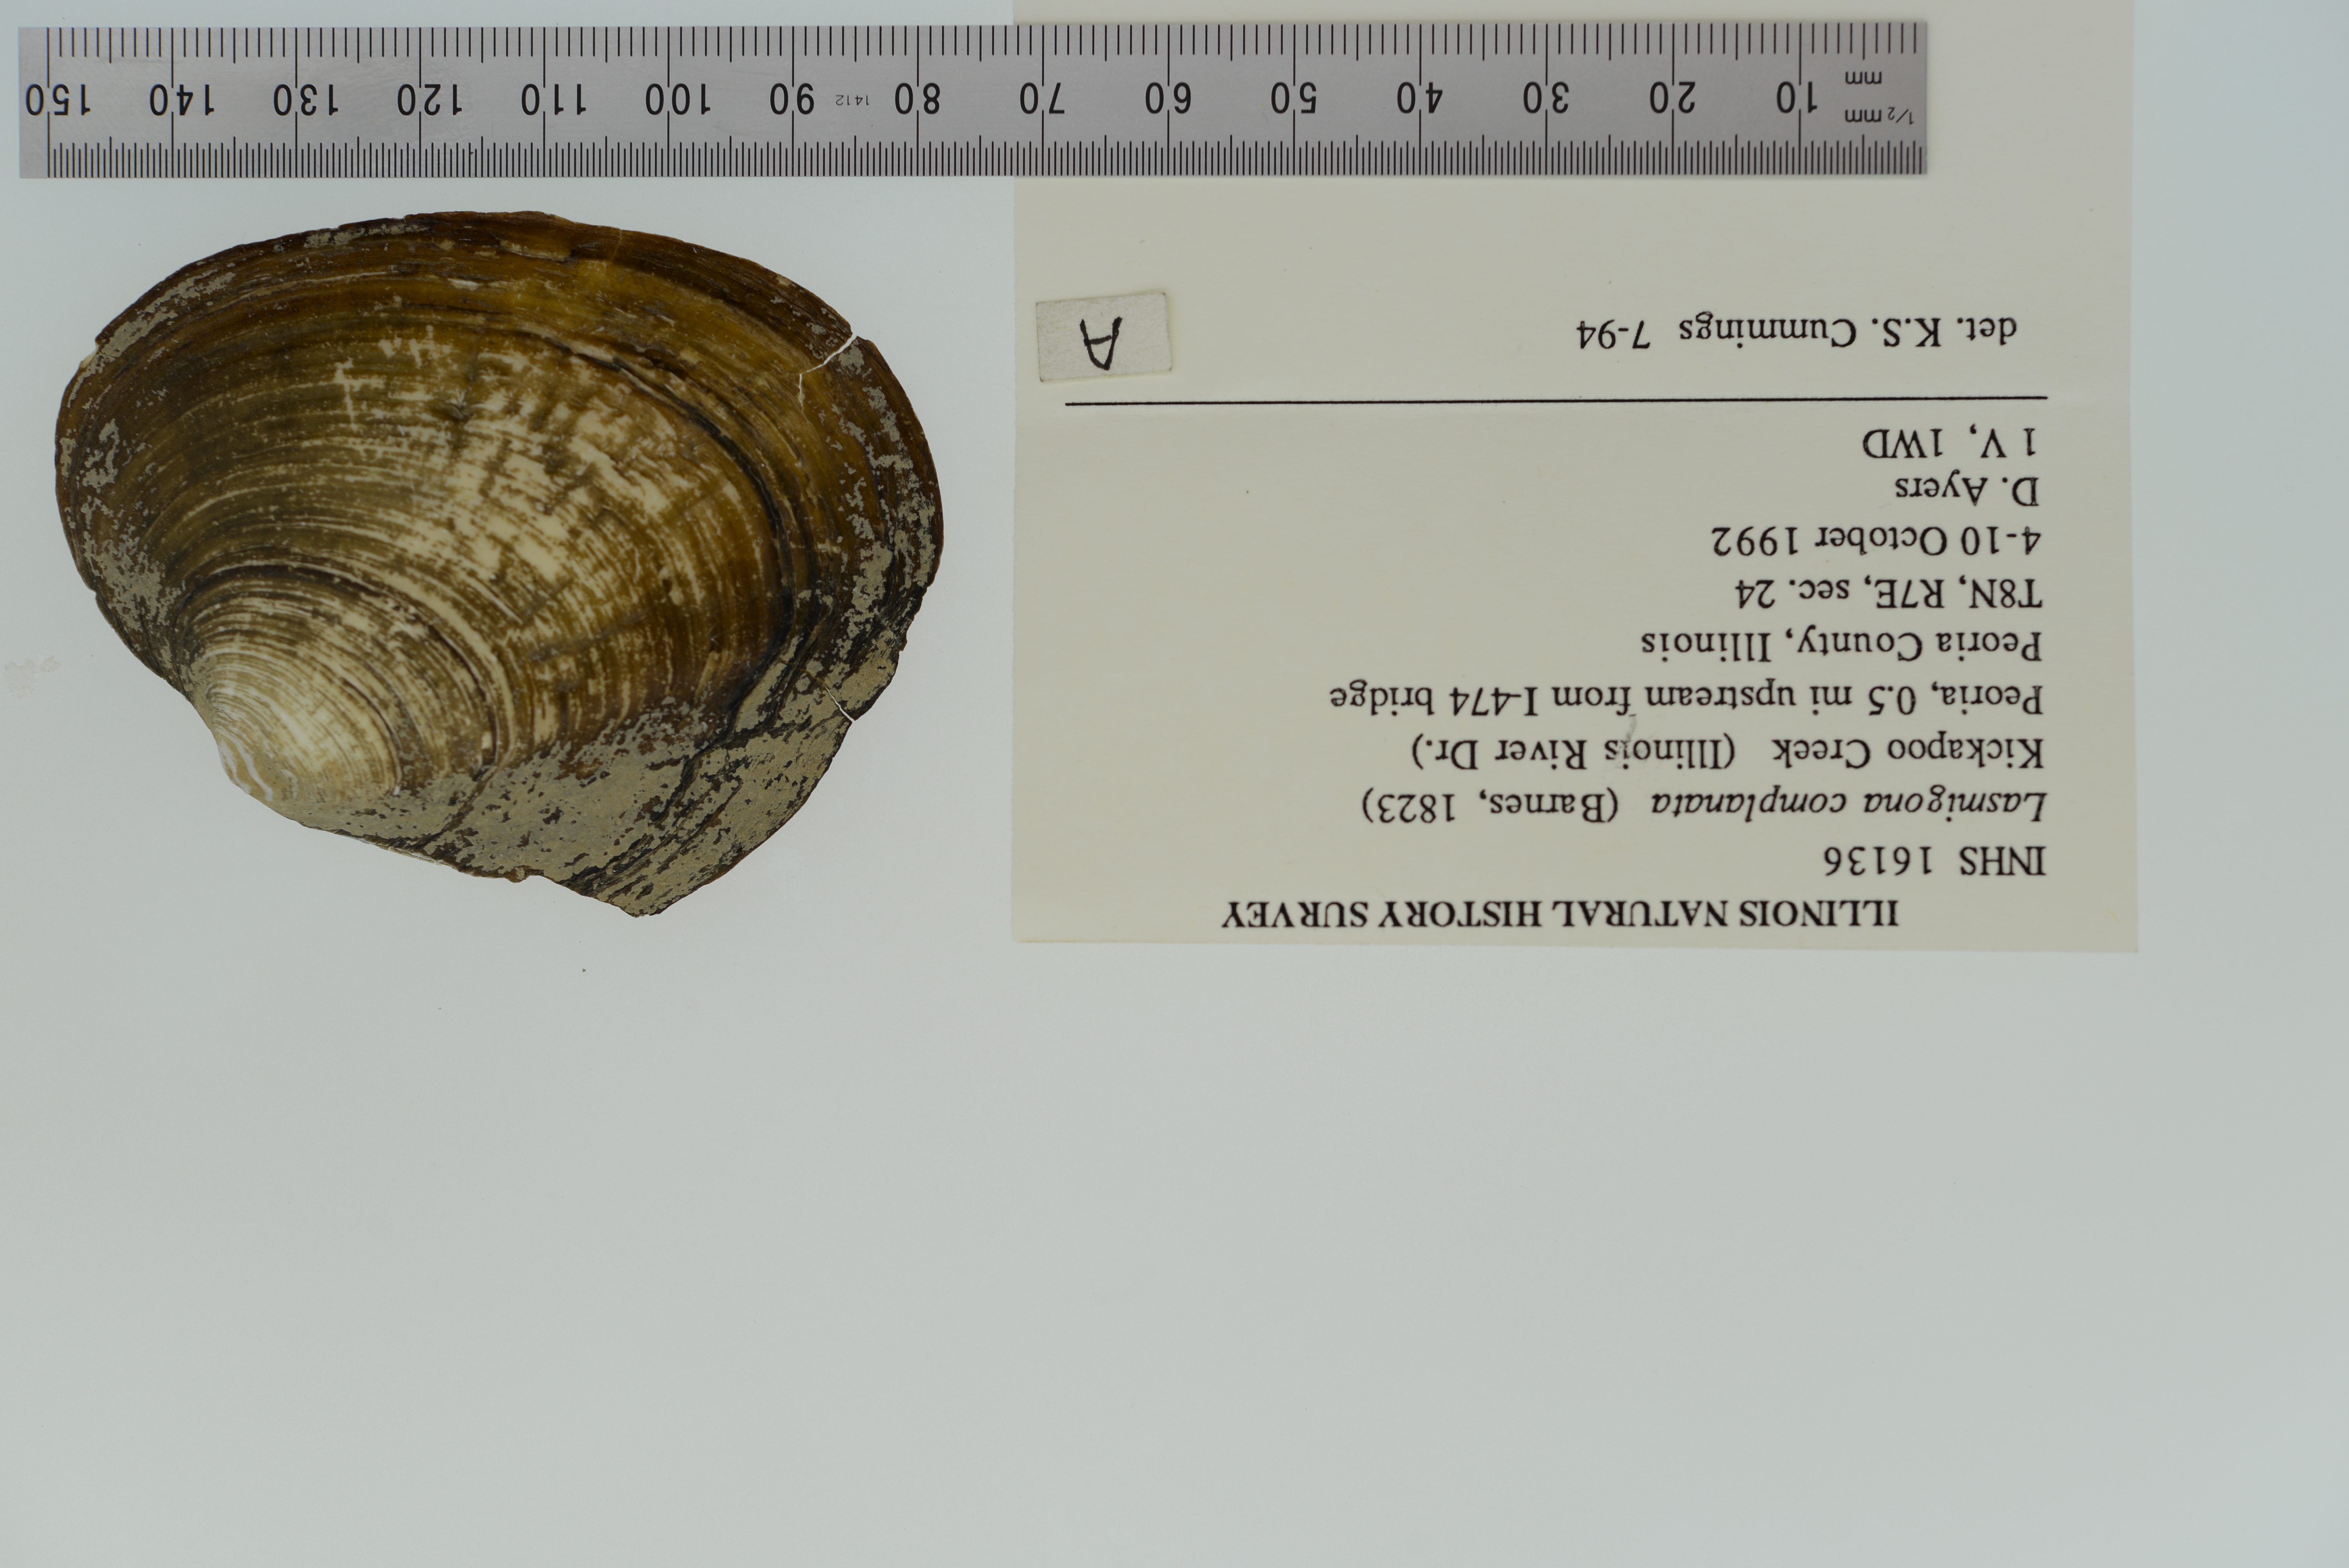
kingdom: Animalia
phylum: Mollusca
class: Bivalvia
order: Unionida
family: Unionidae
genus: Lasmigona
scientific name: Lasmigona complanata
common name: White heelsplitter
